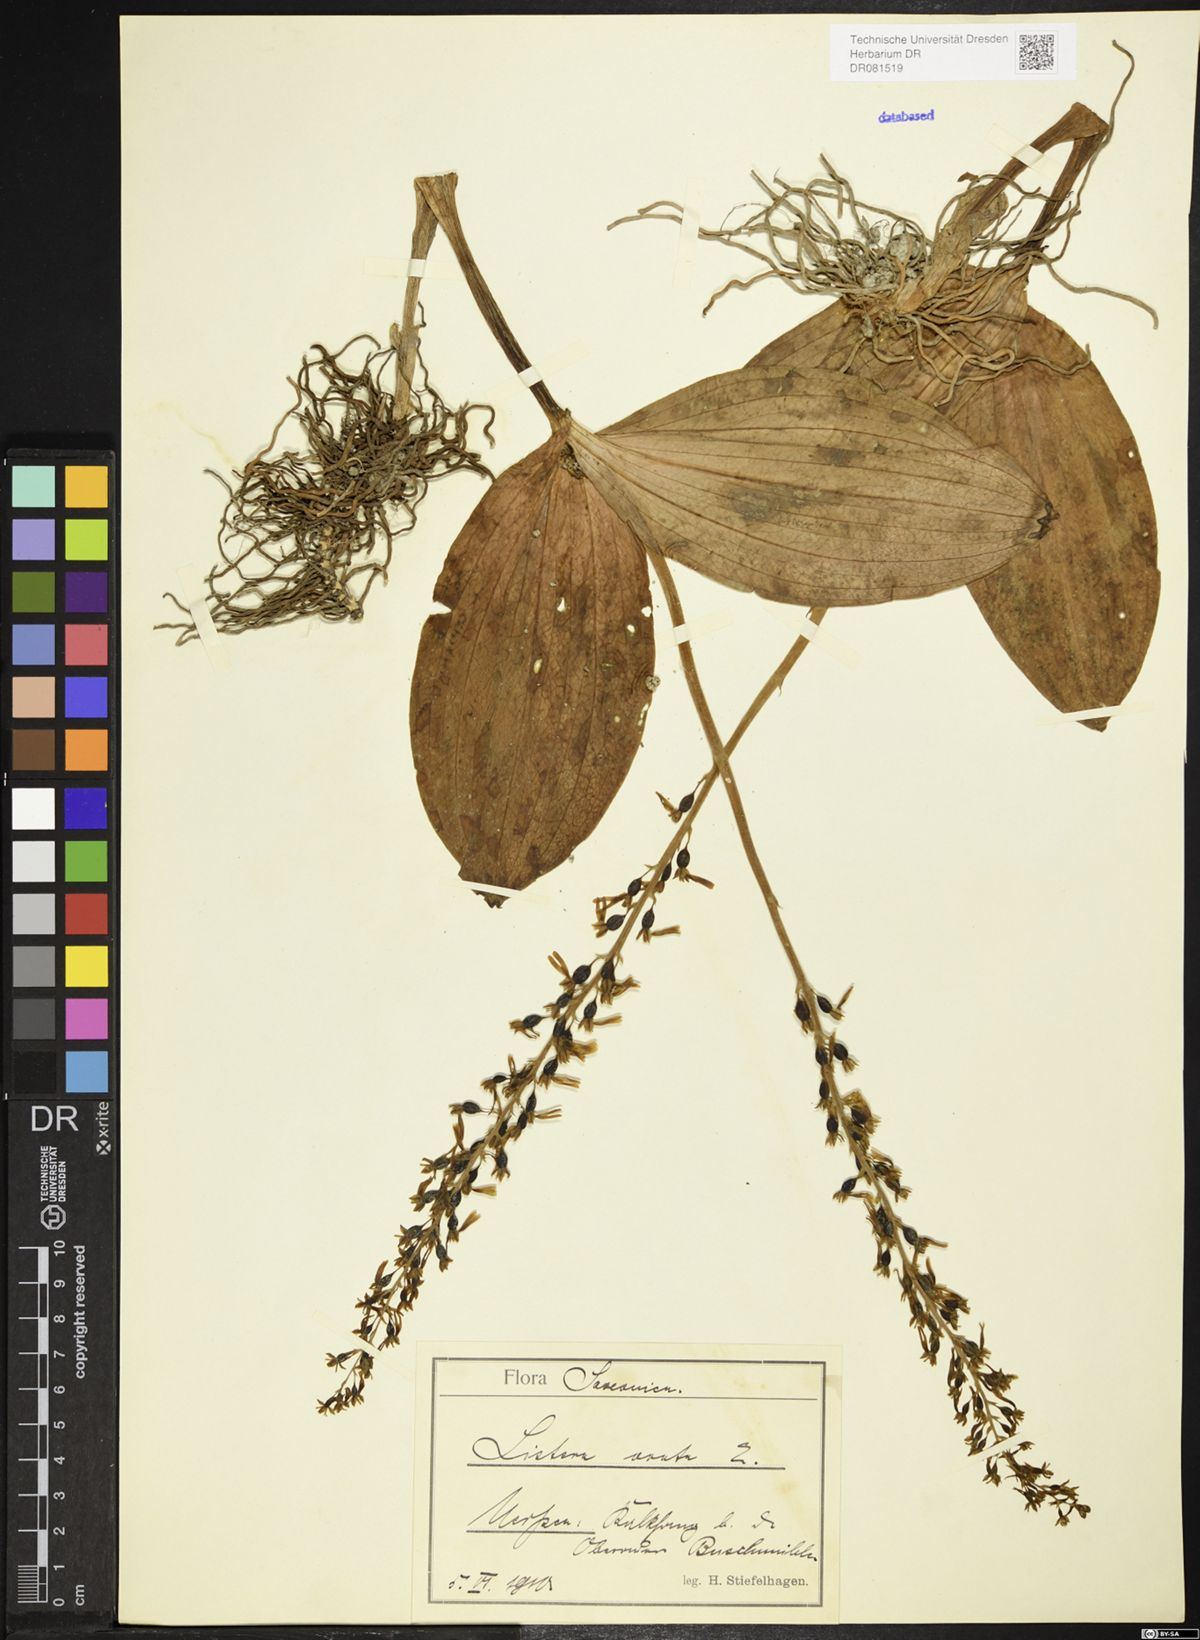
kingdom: Plantae
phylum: Tracheophyta
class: Liliopsida
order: Asparagales
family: Orchidaceae
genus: Neottia
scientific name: Neottia ovata
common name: Common twayblade
